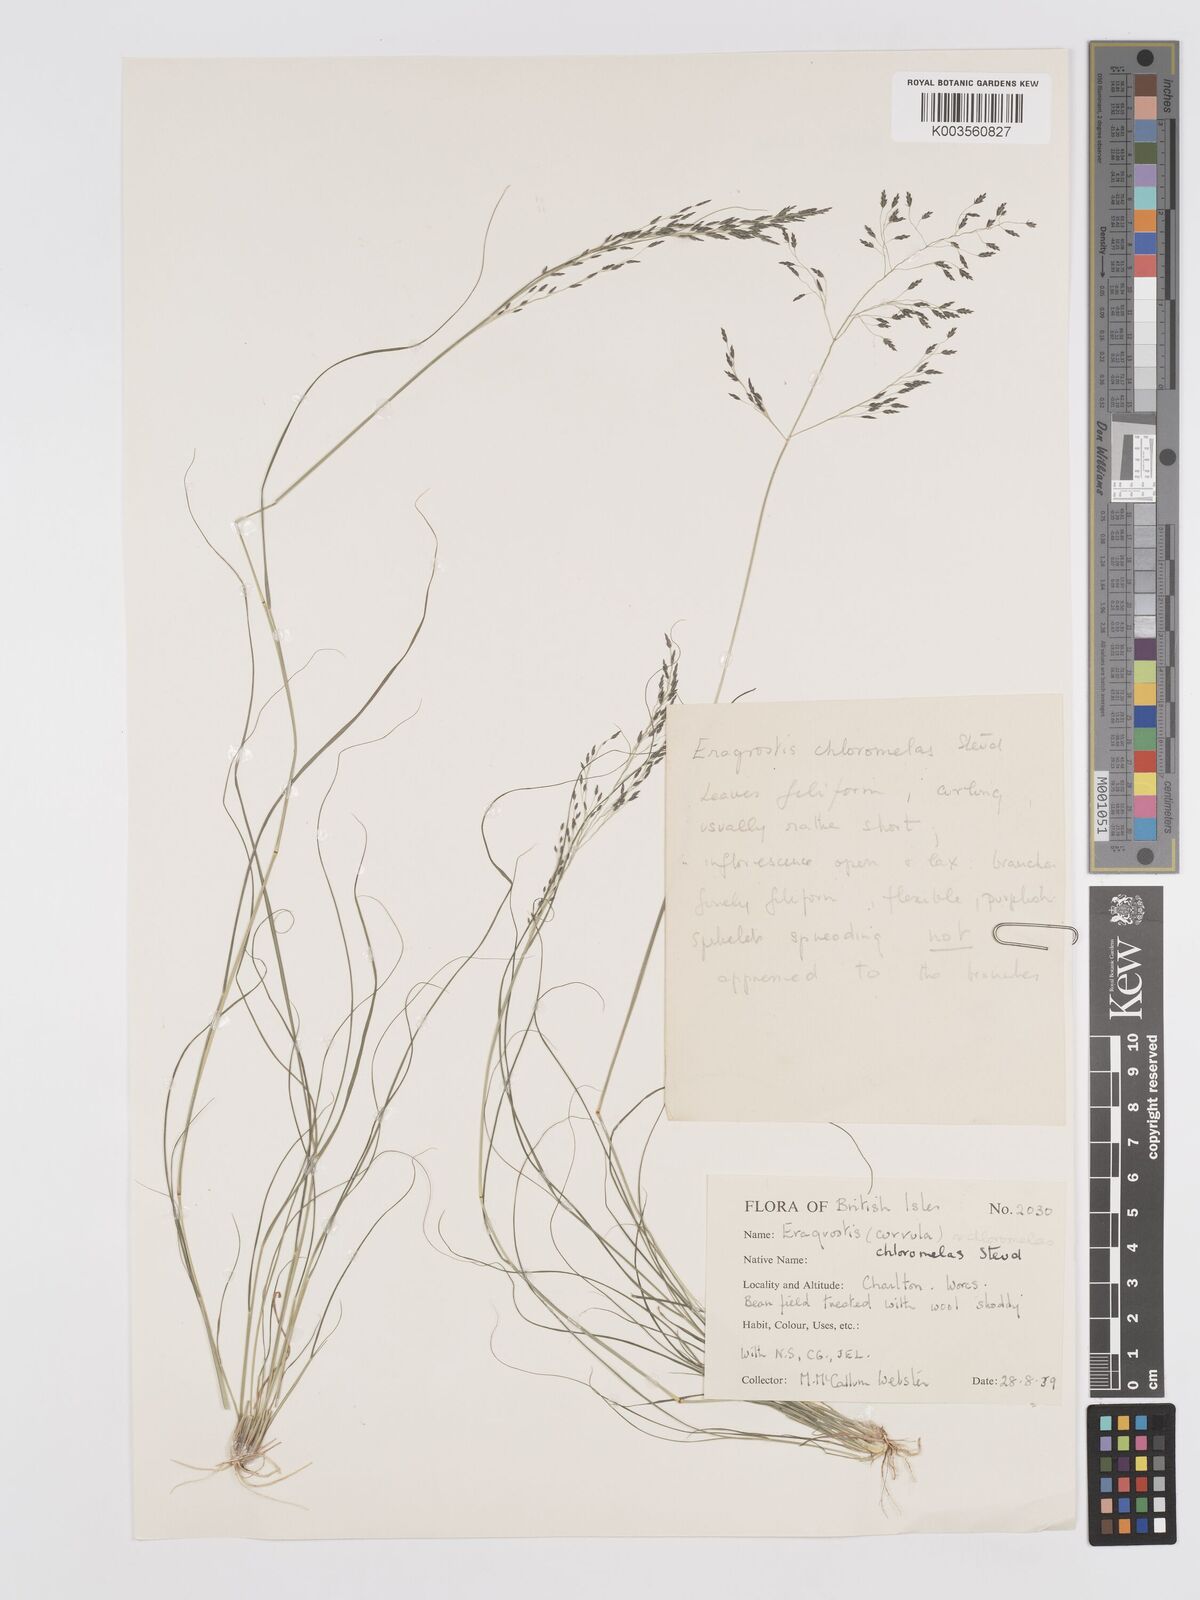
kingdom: Plantae
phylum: Tracheophyta
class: Liliopsida
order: Poales
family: Poaceae
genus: Eragrostis
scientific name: Eragrostis curvula
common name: African love-grass
